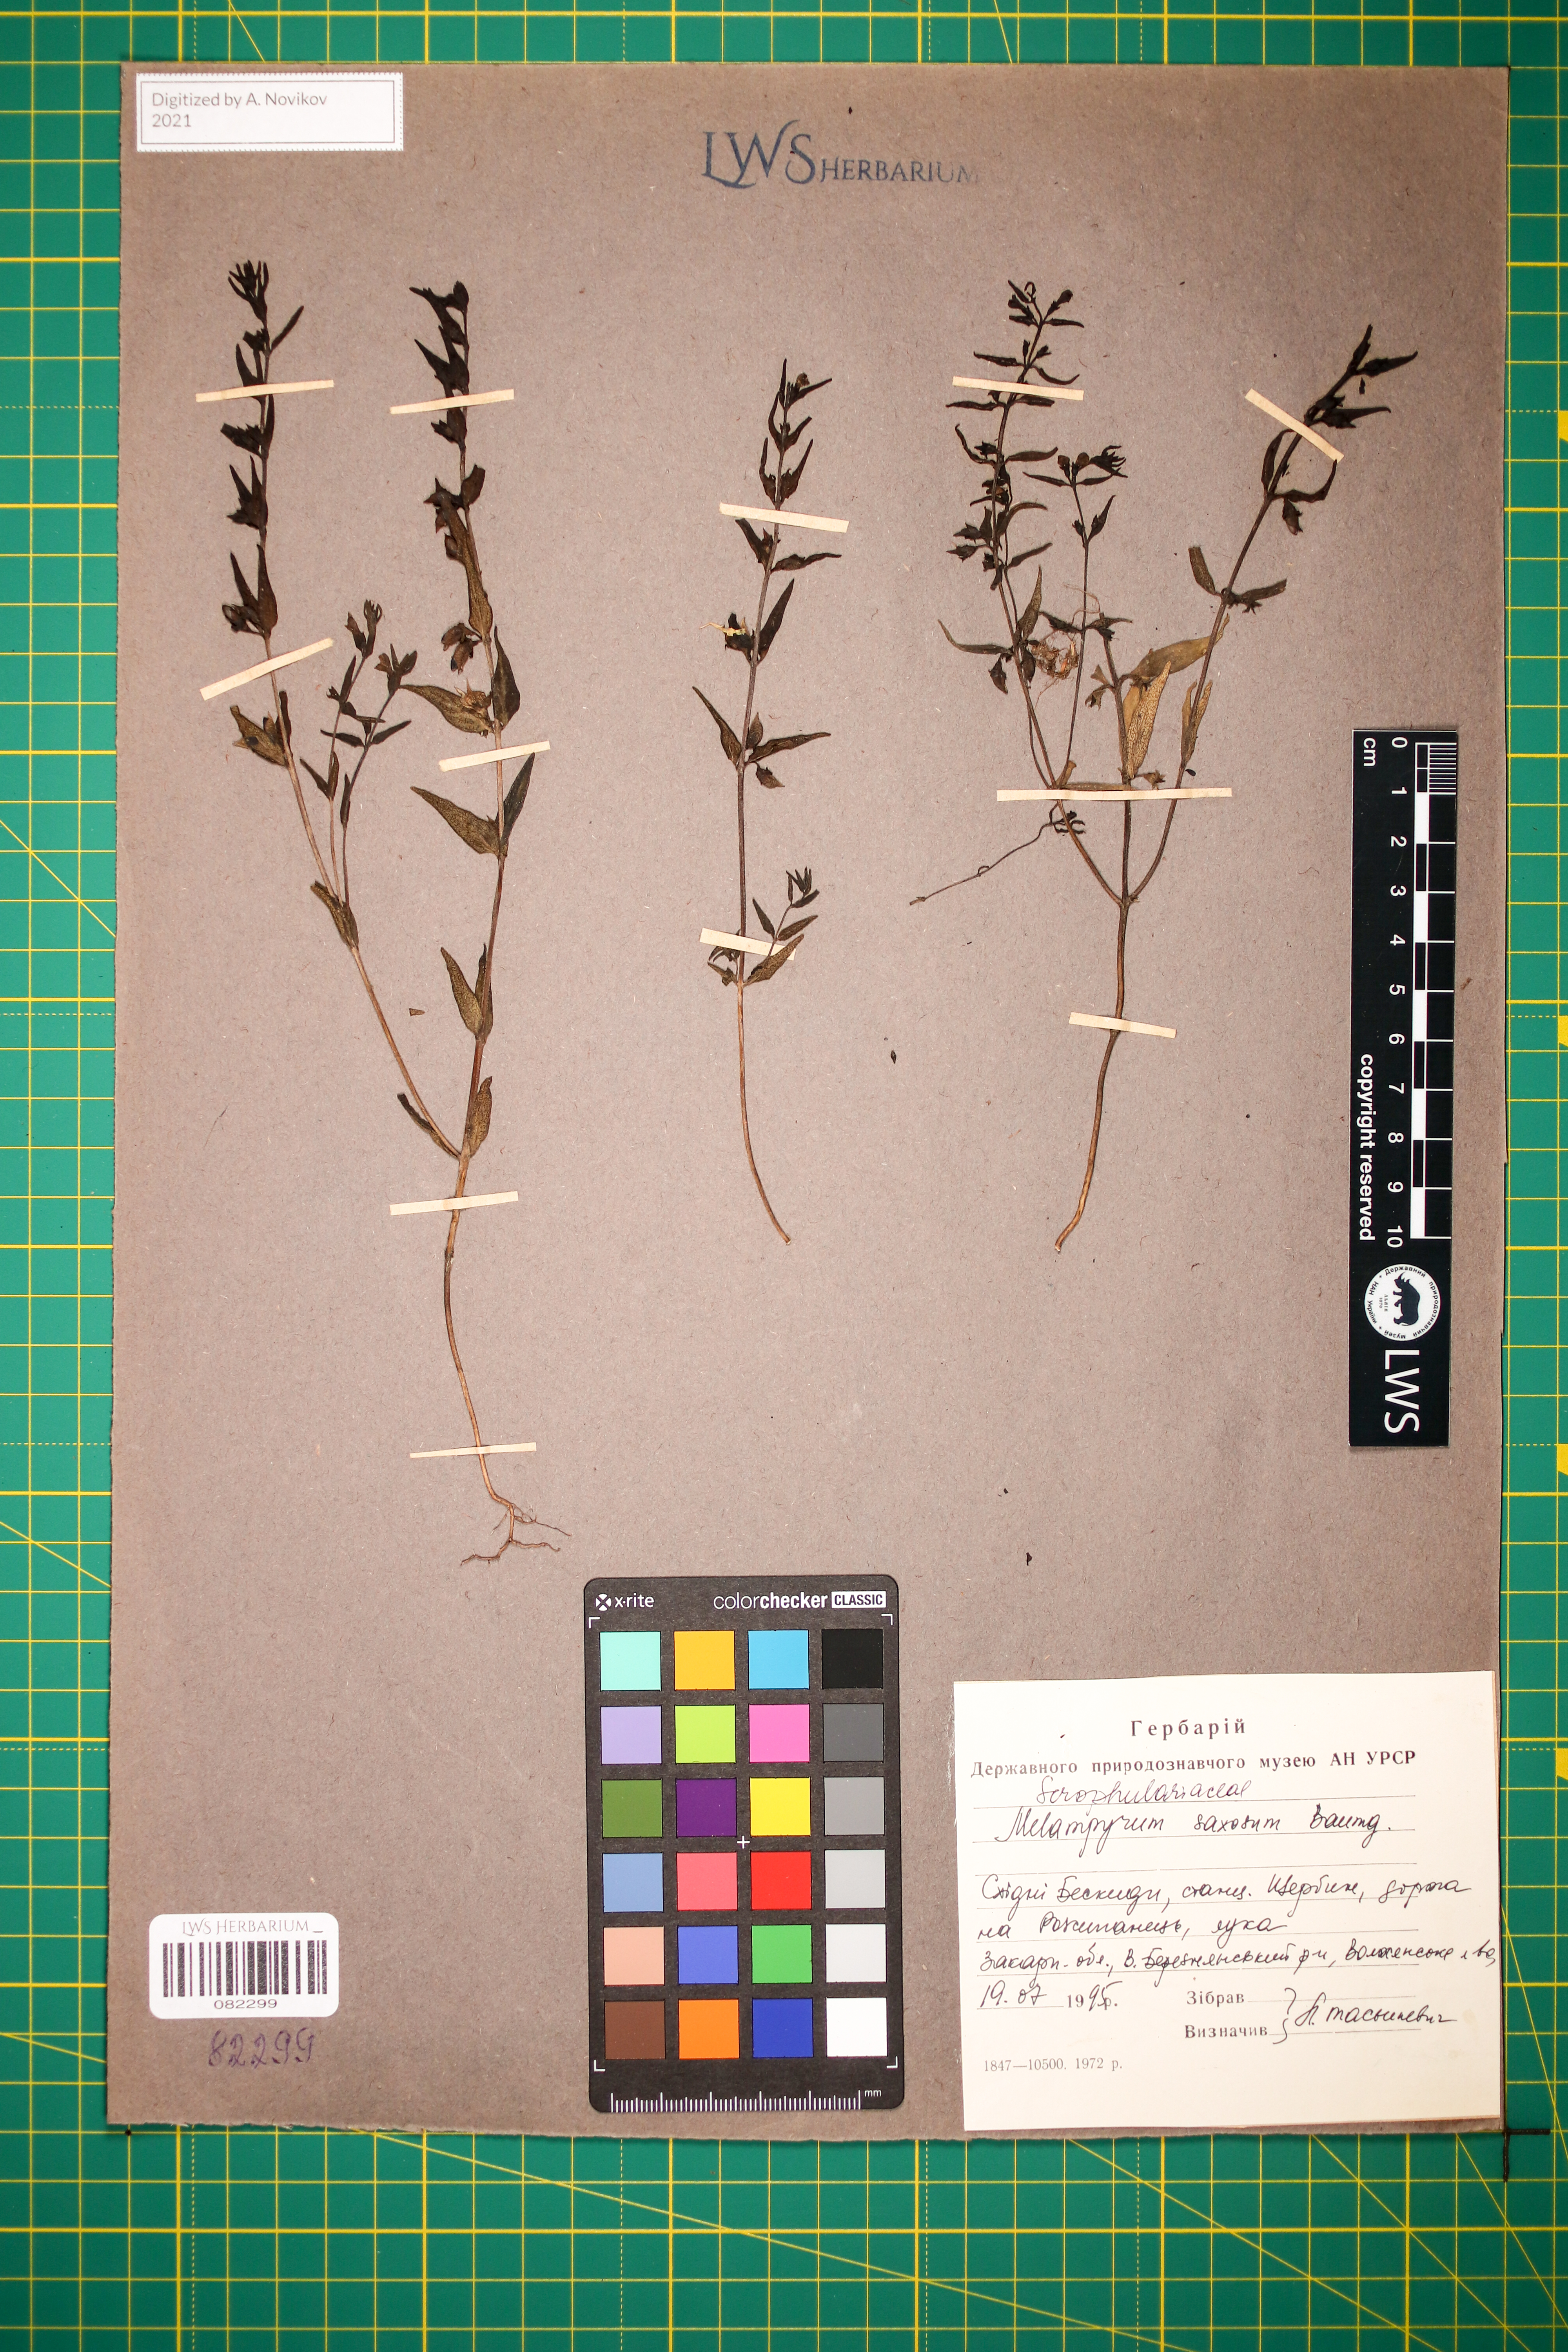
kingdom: Plantae
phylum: Tracheophyta
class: Magnoliopsida
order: Lamiales
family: Orobanchaceae
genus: Melampyrum
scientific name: Melampyrum saxosum
